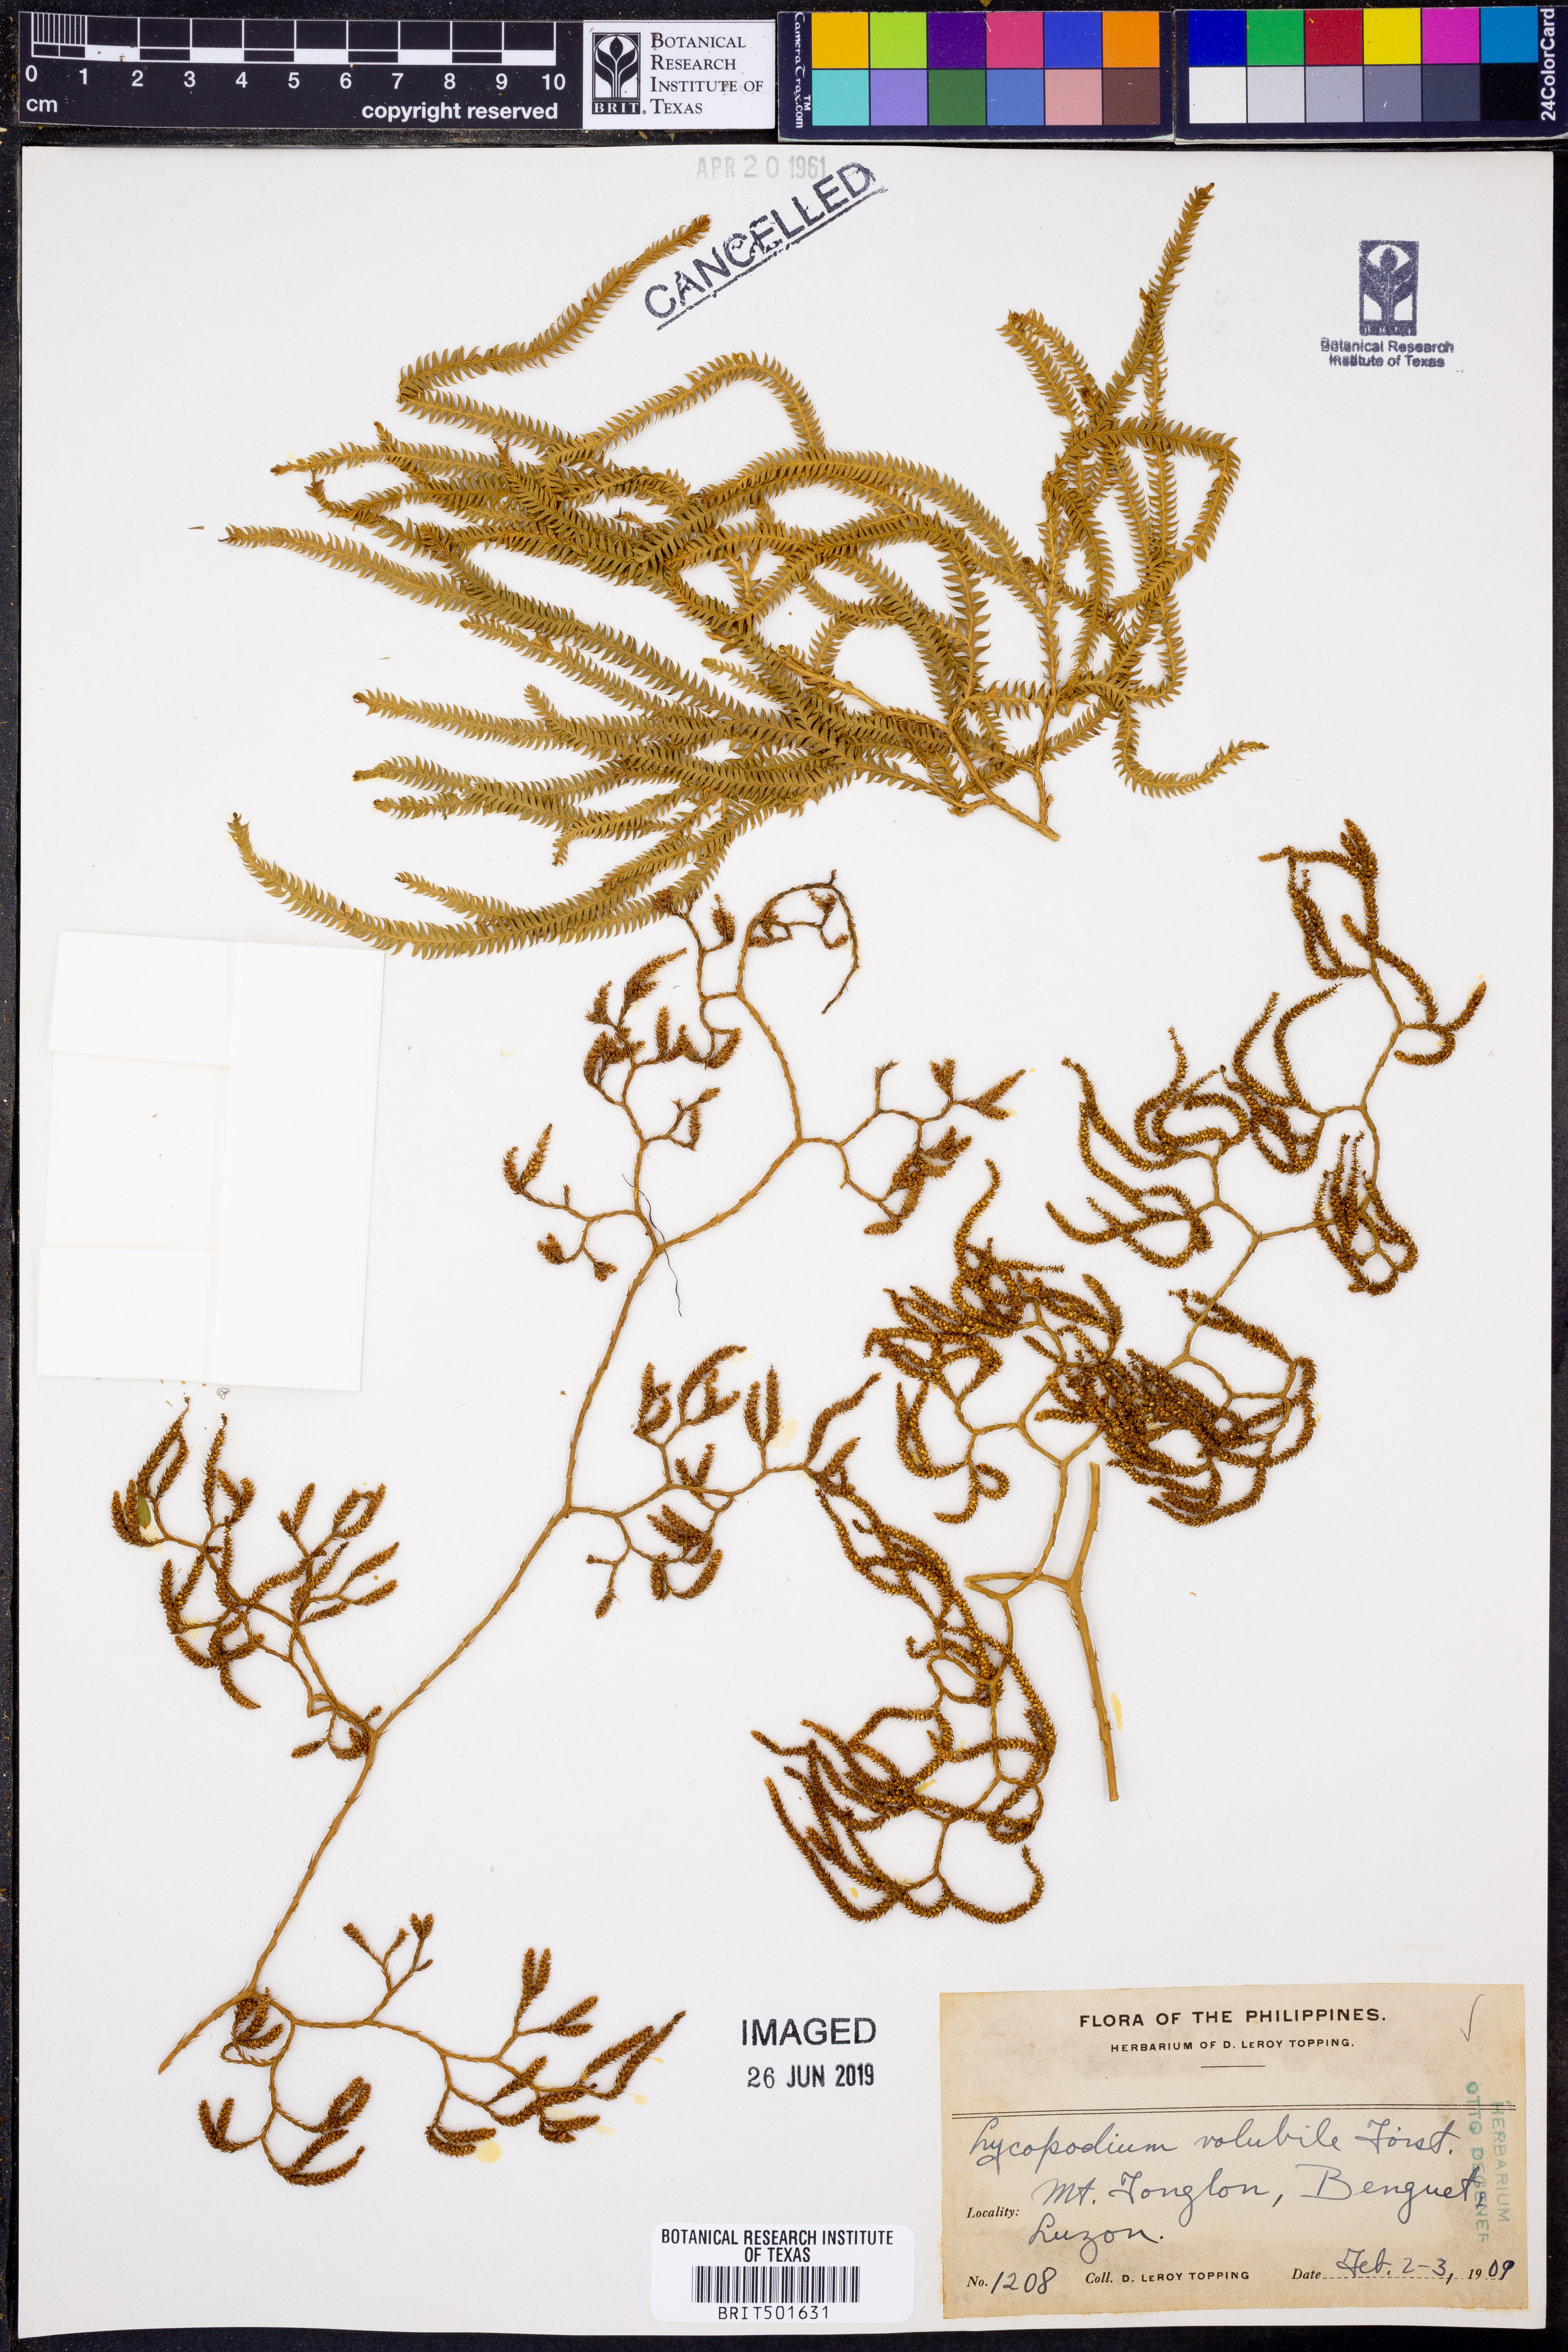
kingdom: Plantae
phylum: Tracheophyta
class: Lycopodiopsida
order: Lycopodiales
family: Lycopodiaceae
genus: Pseudodiphasium
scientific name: Pseudodiphasium volubile
